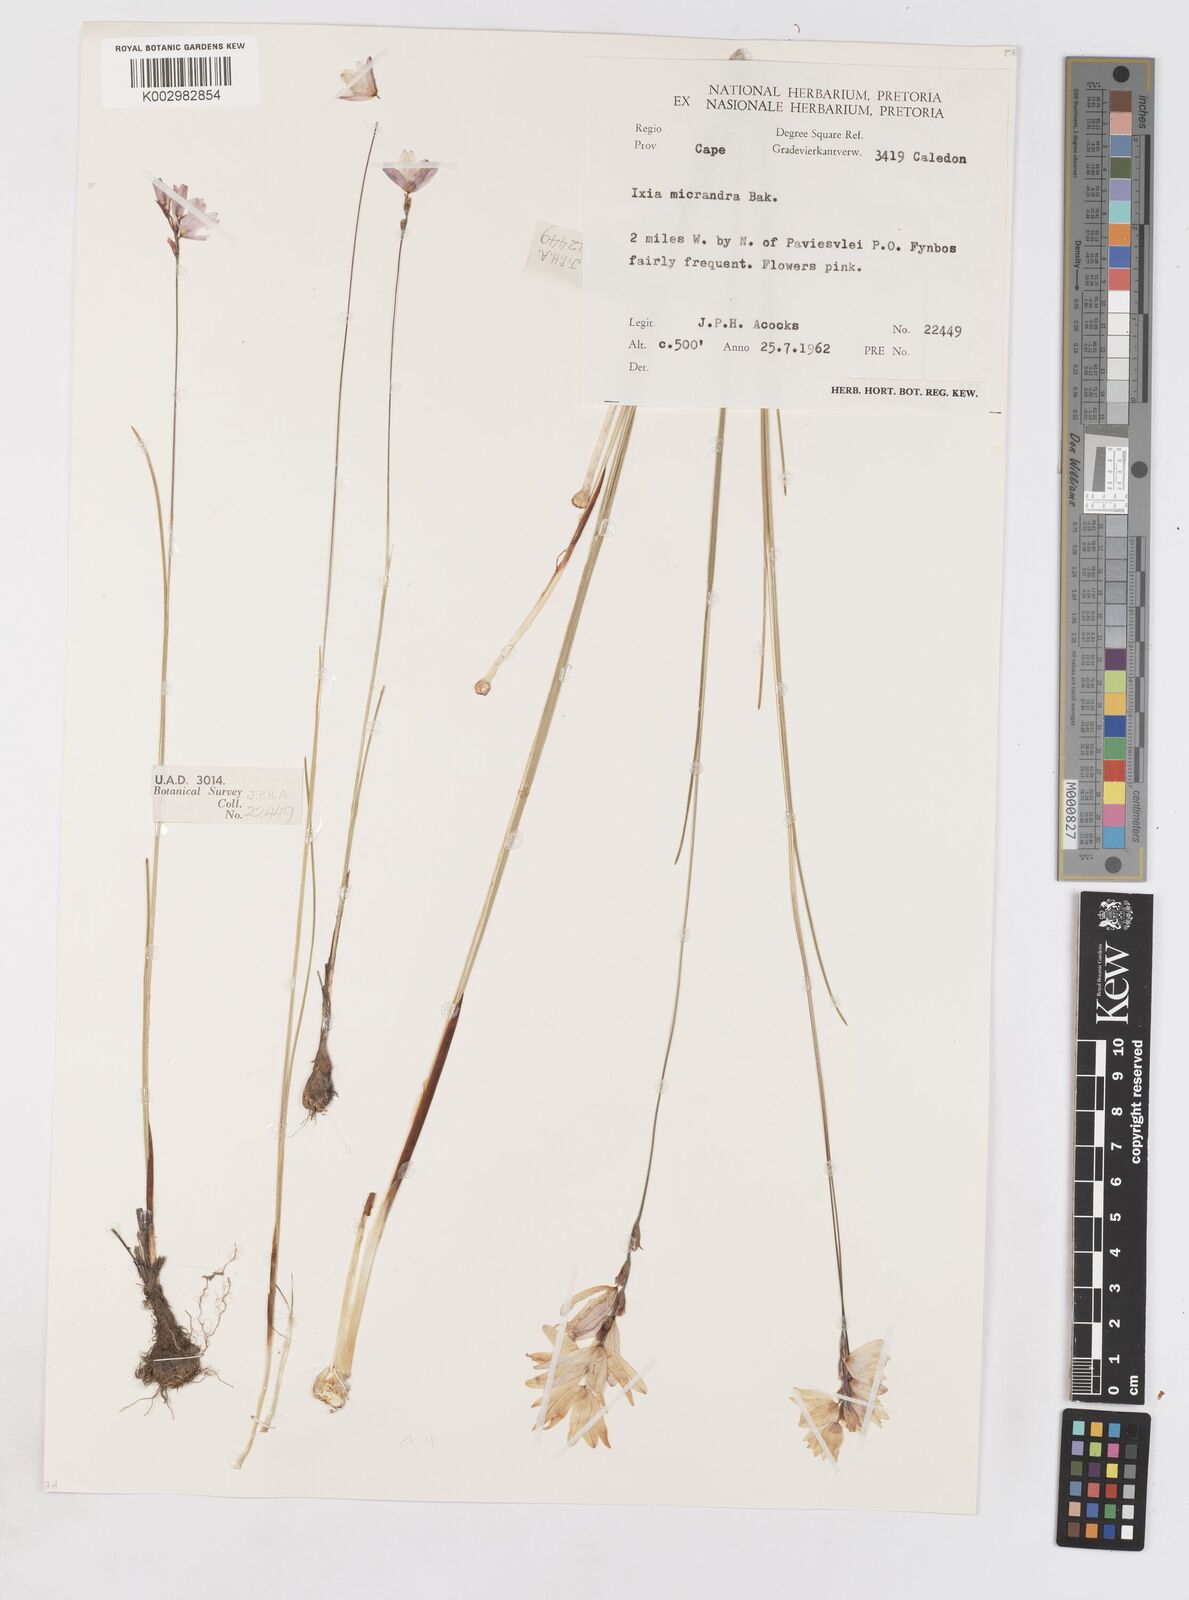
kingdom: Plantae
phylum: Tracheophyta
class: Liliopsida
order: Asparagales
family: Iridaceae
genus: Ixia
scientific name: Ixia micrandra
